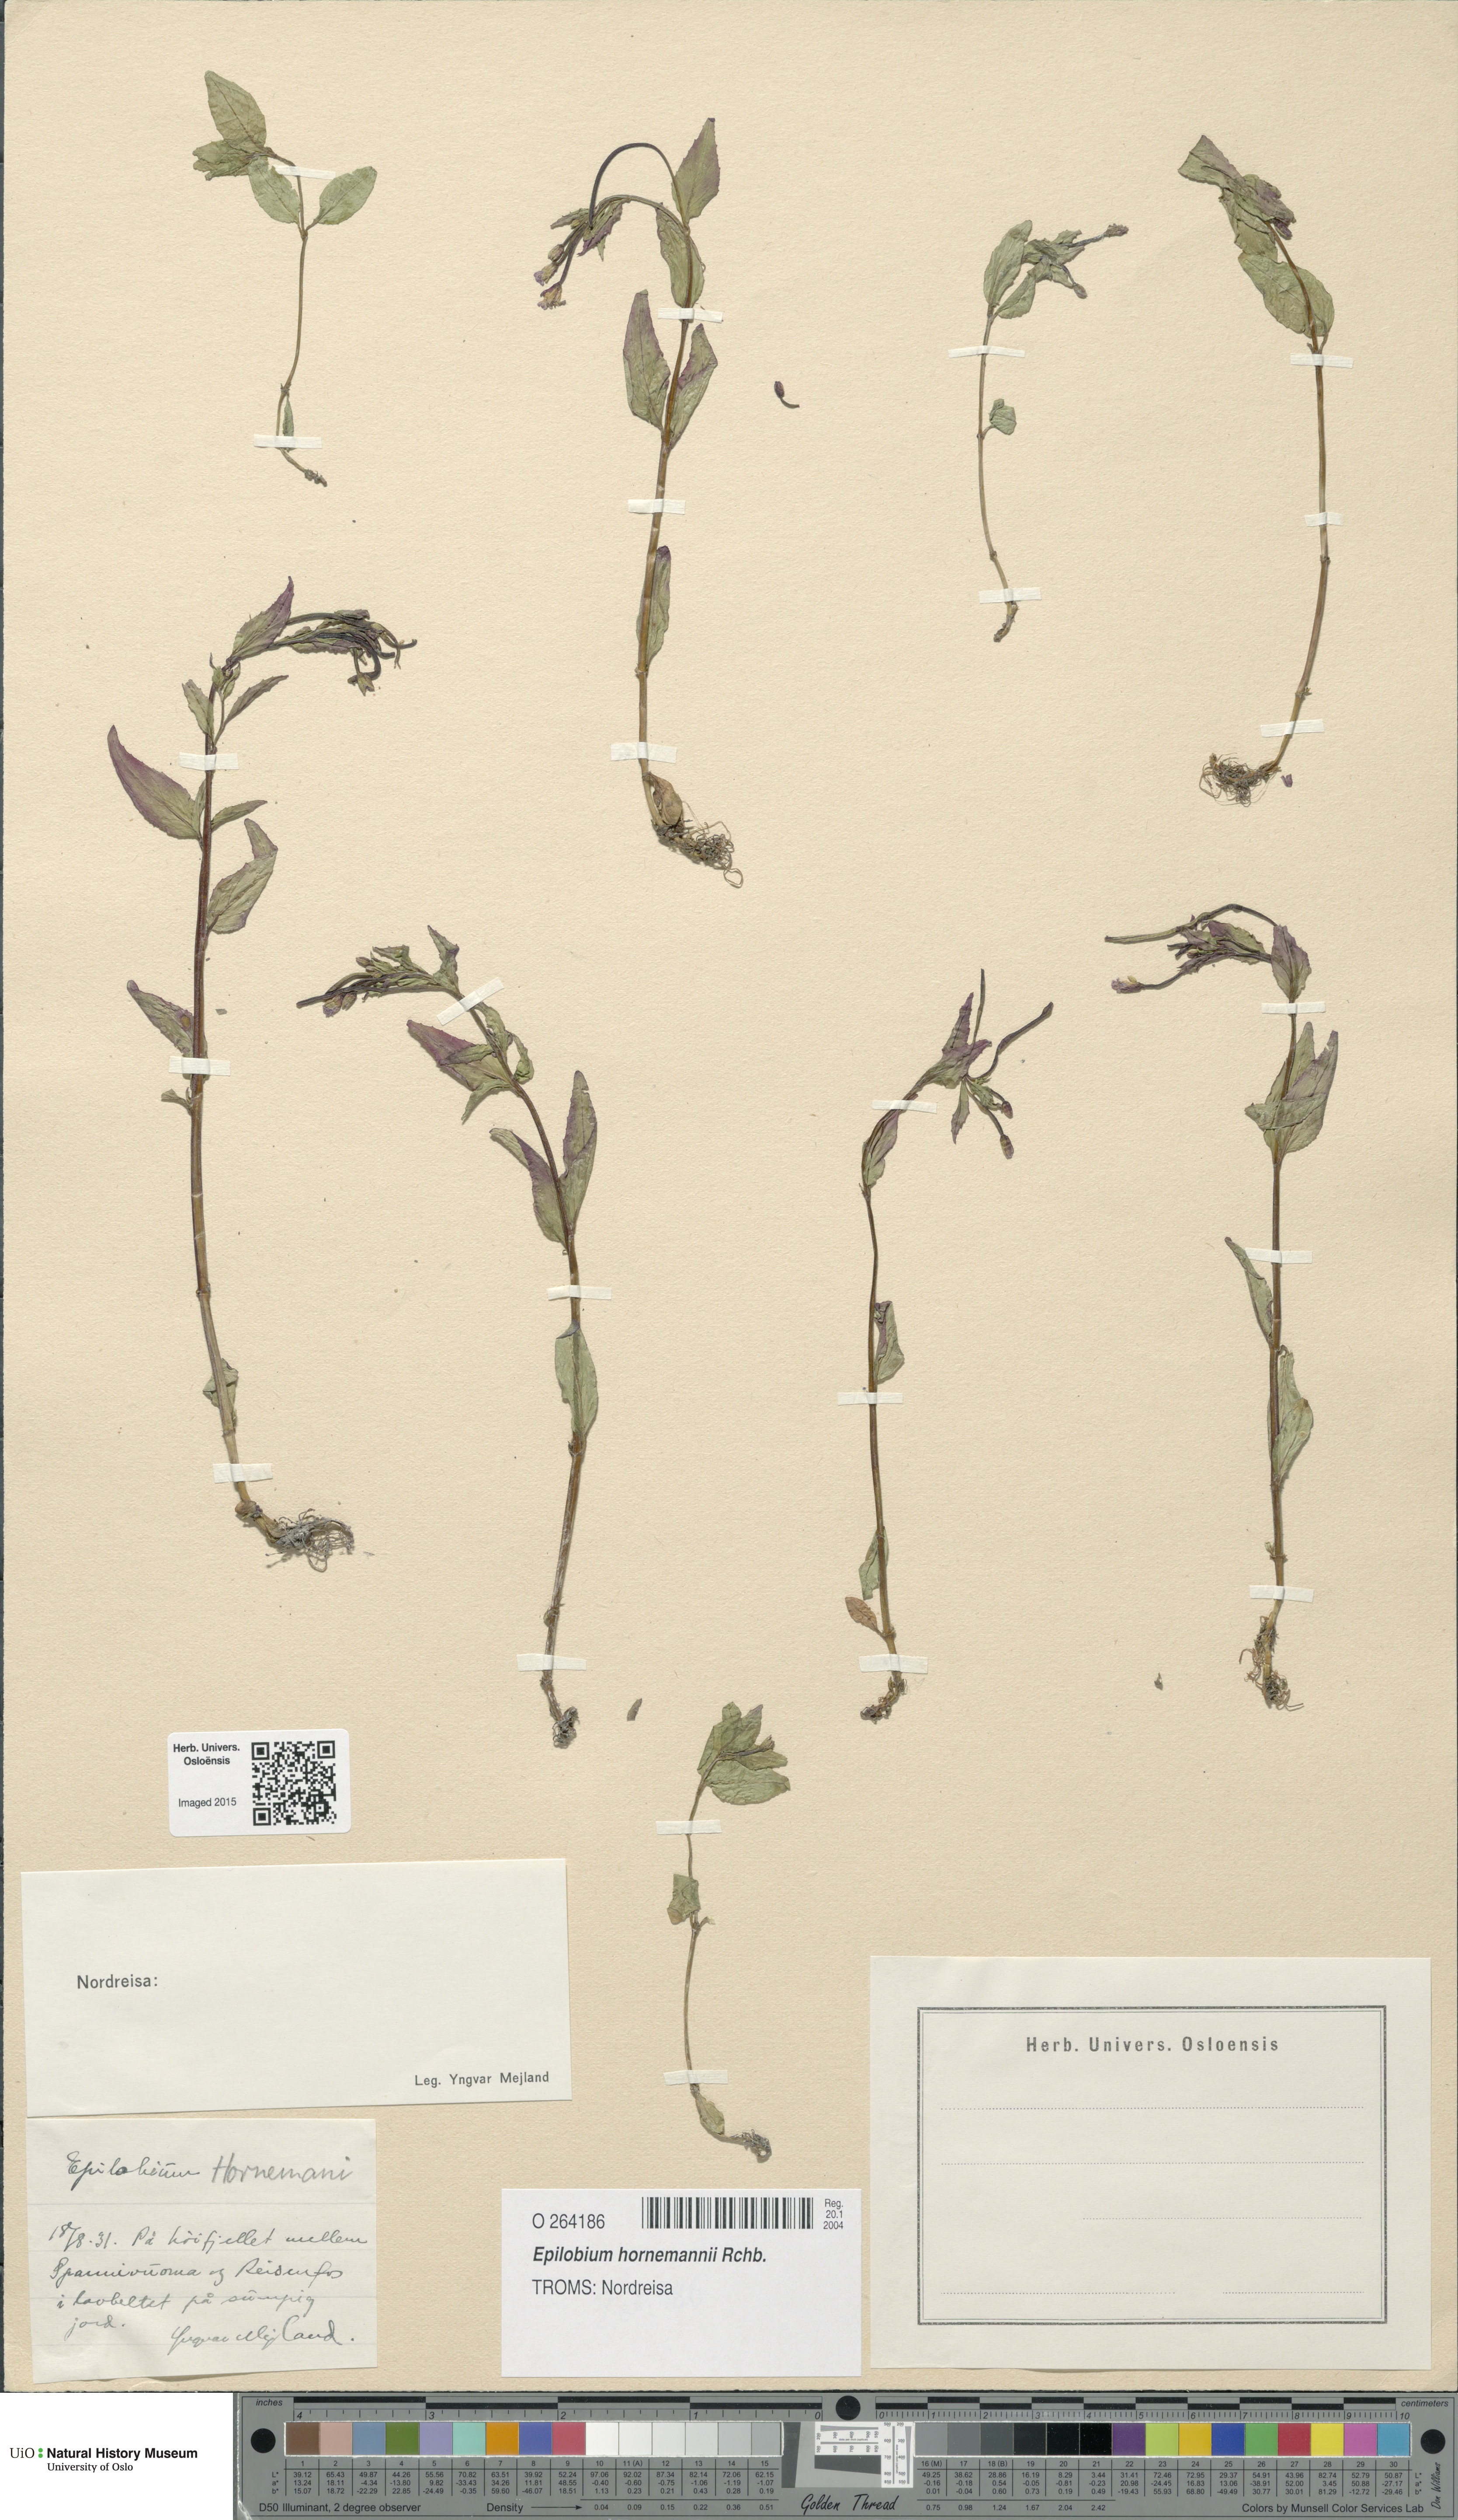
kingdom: Plantae
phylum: Tracheophyta
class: Magnoliopsida
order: Myrtales
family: Onagraceae
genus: Epilobium
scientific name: Epilobium hornemannii
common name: Hornemann's willowherb
